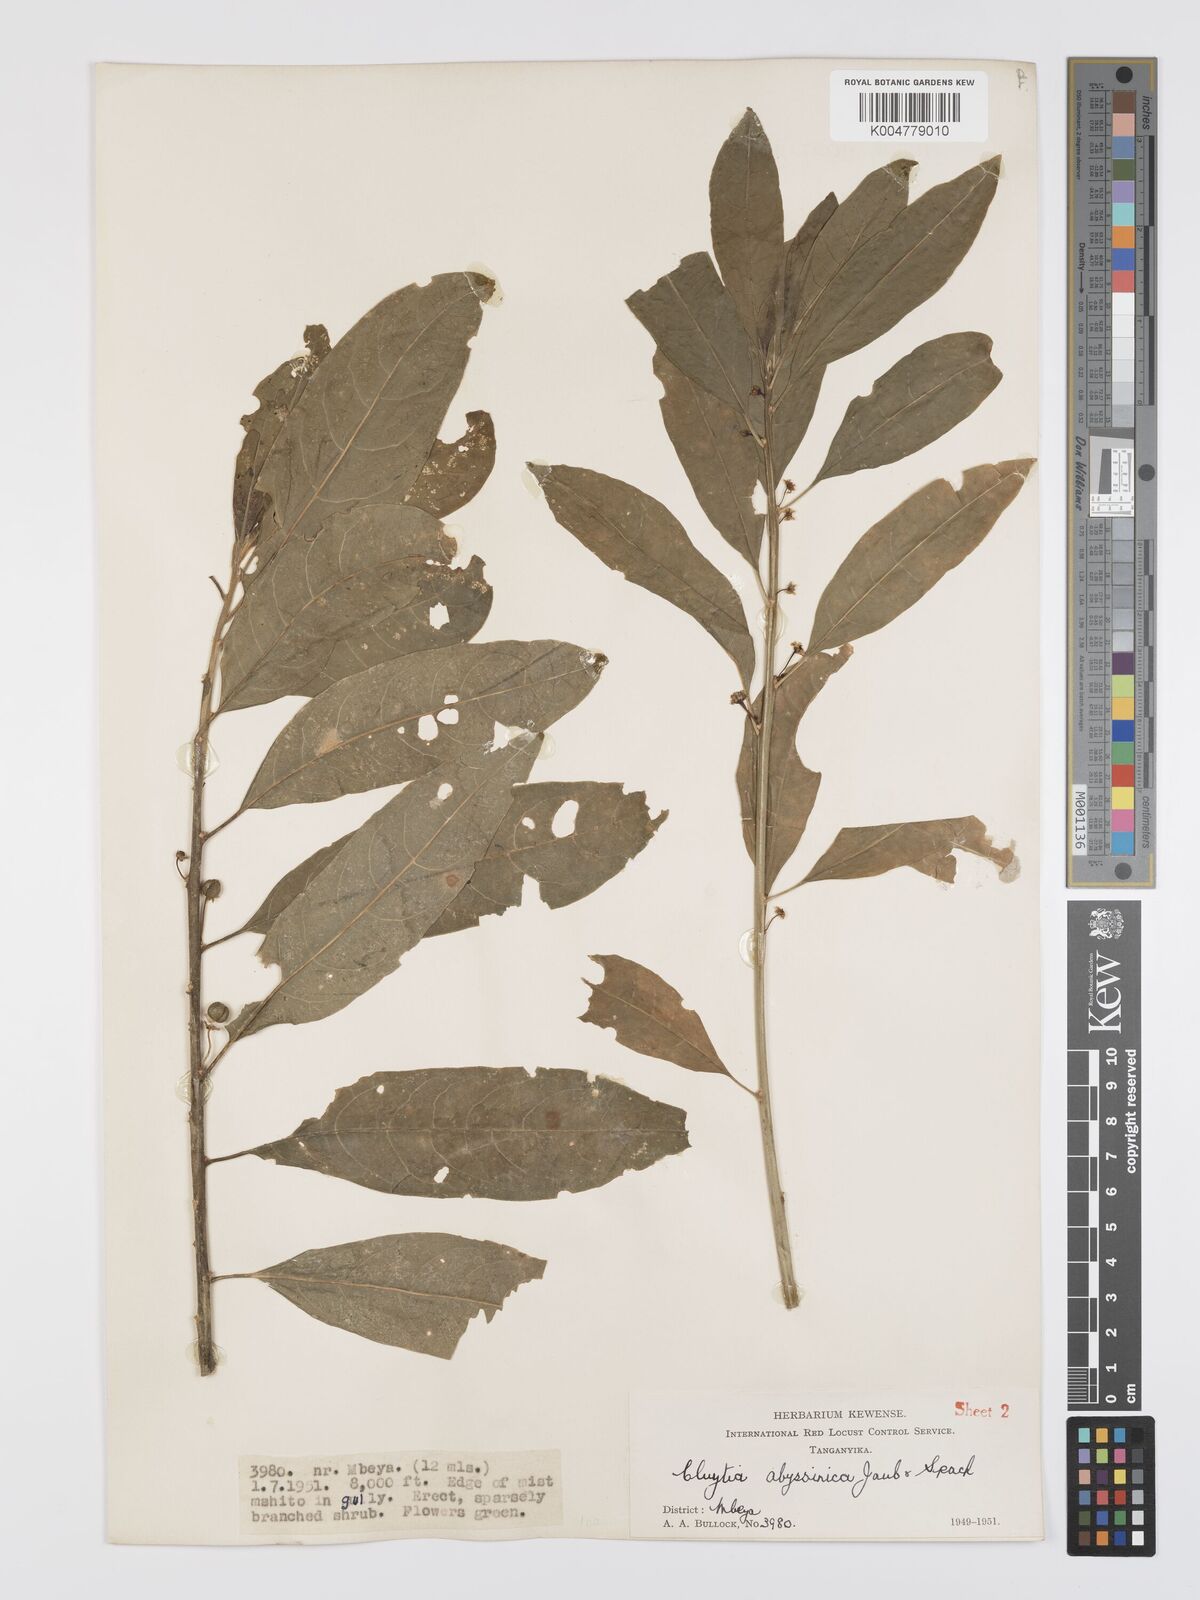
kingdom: Plantae
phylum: Tracheophyta
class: Magnoliopsida
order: Malpighiales
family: Peraceae
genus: Clutia
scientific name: Clutia abyssinica
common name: Large lightning bush
